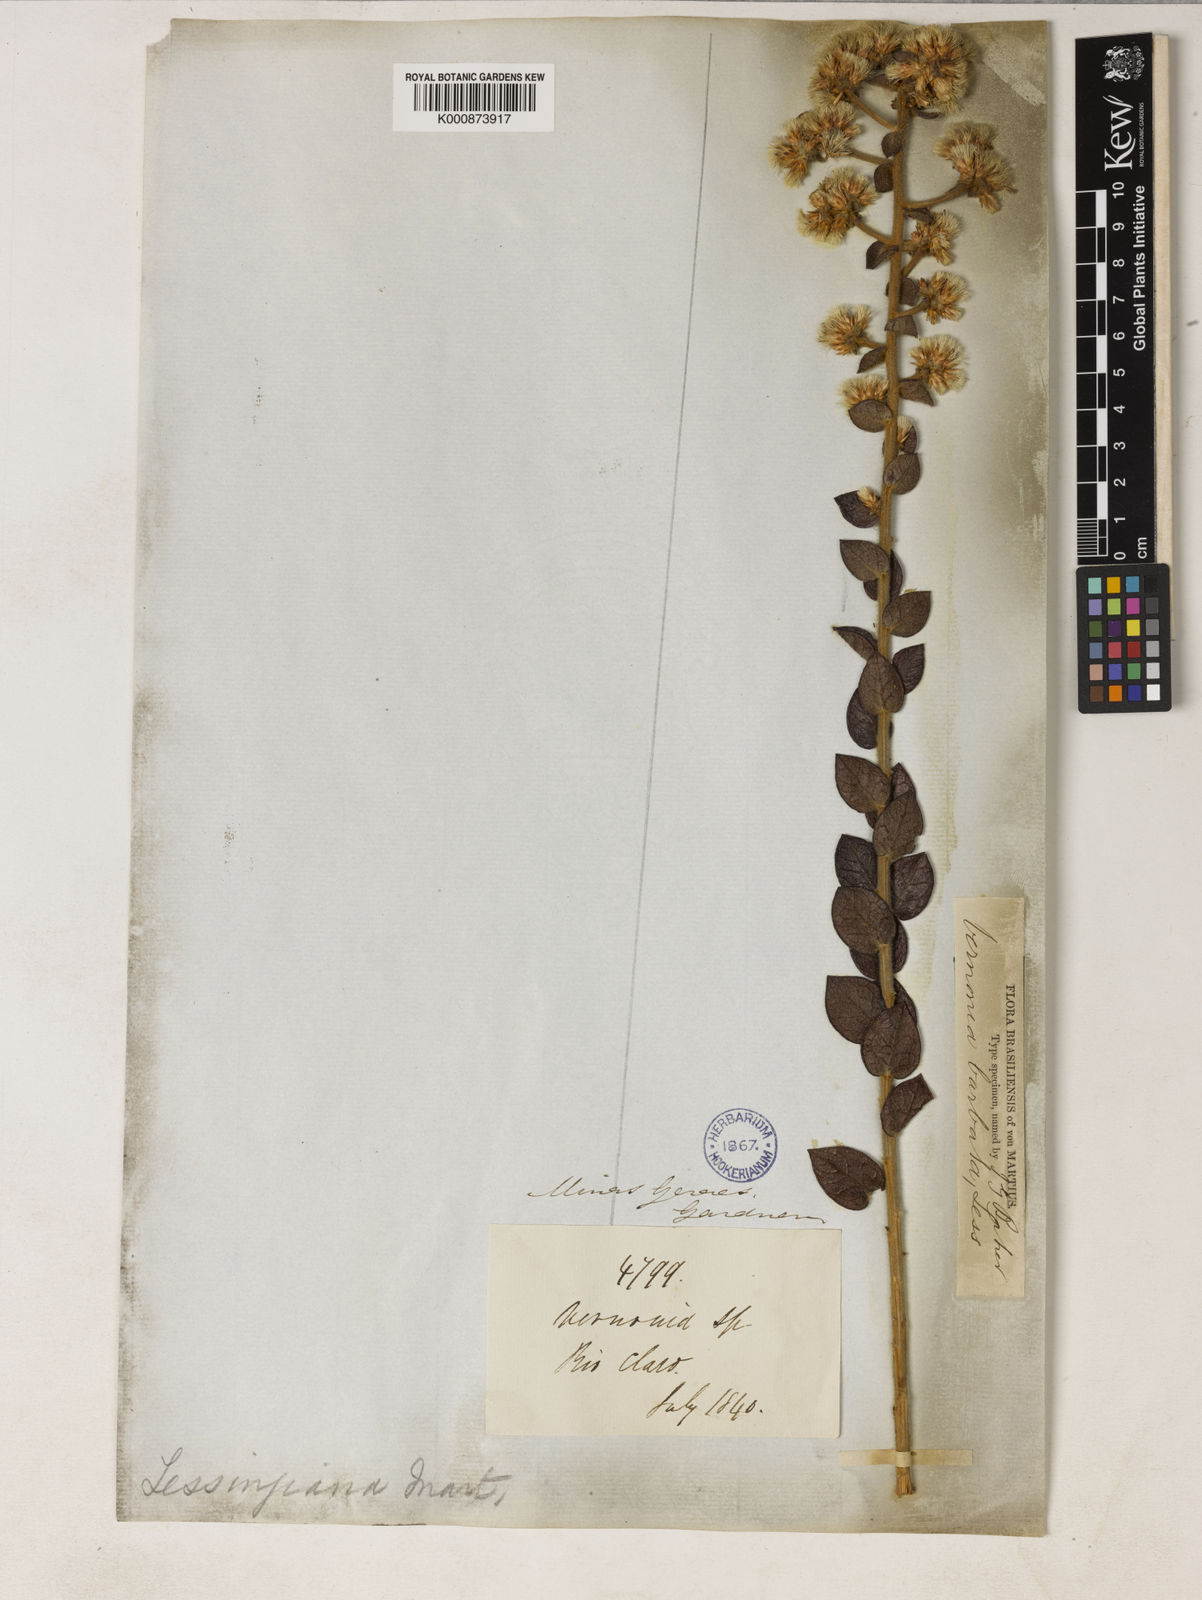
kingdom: Plantae
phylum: Tracheophyta
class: Magnoliopsida
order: Asterales
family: Asteraceae
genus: Lepidaploa
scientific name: Lepidaploa barbata
